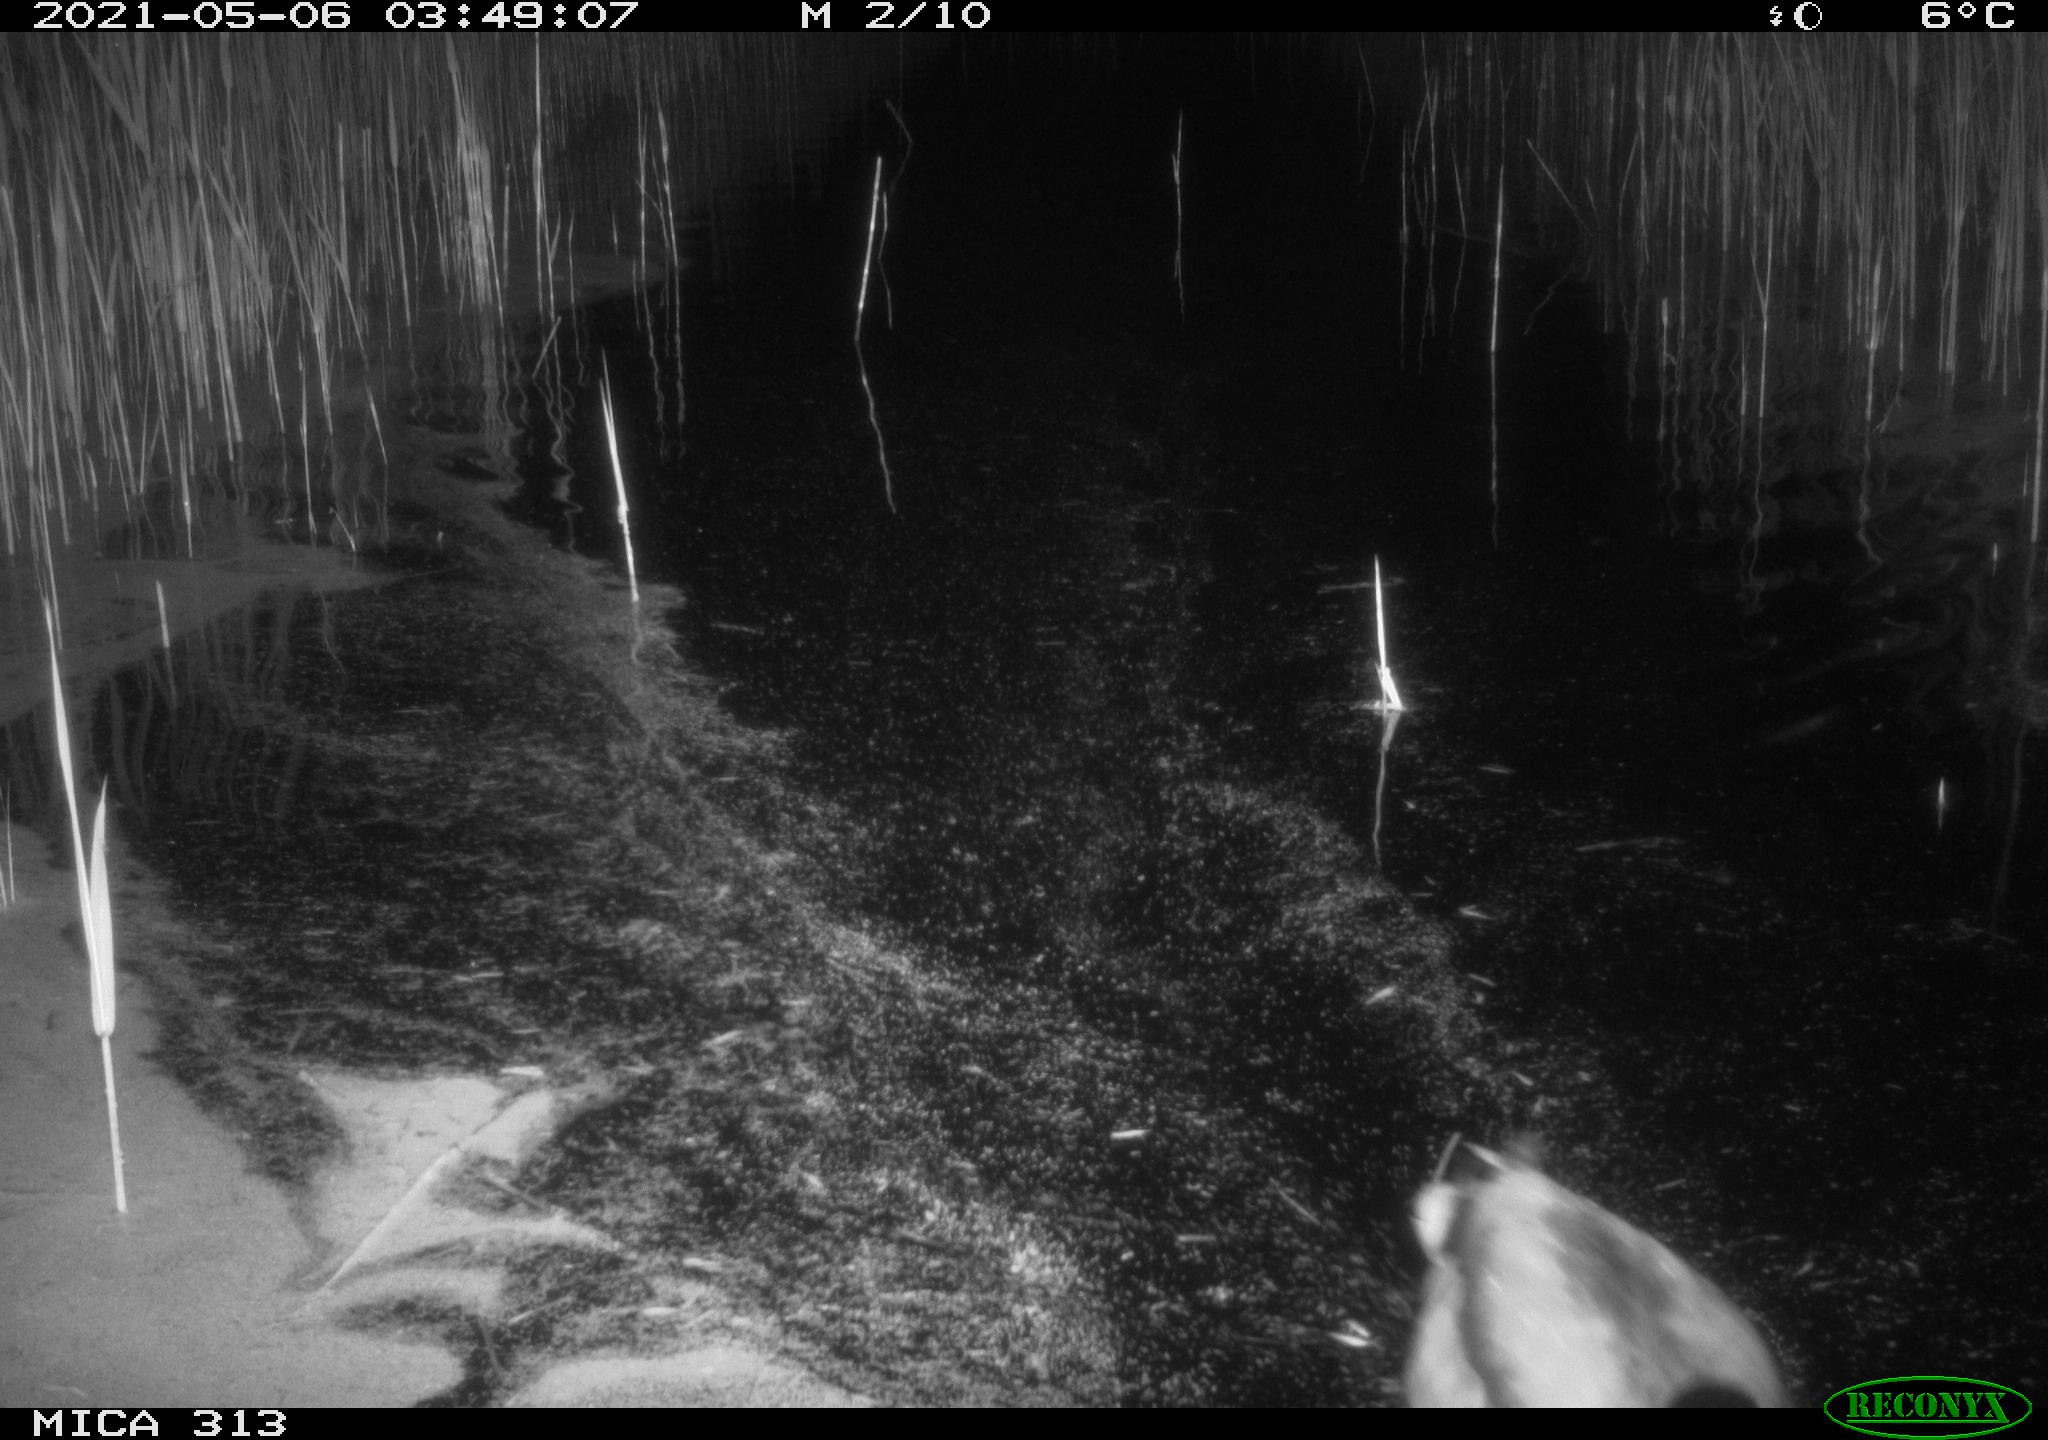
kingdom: Animalia
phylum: Chordata
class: Aves
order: Gruiformes
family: Rallidae
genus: Fulica
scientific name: Fulica atra
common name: Eurasian coot
